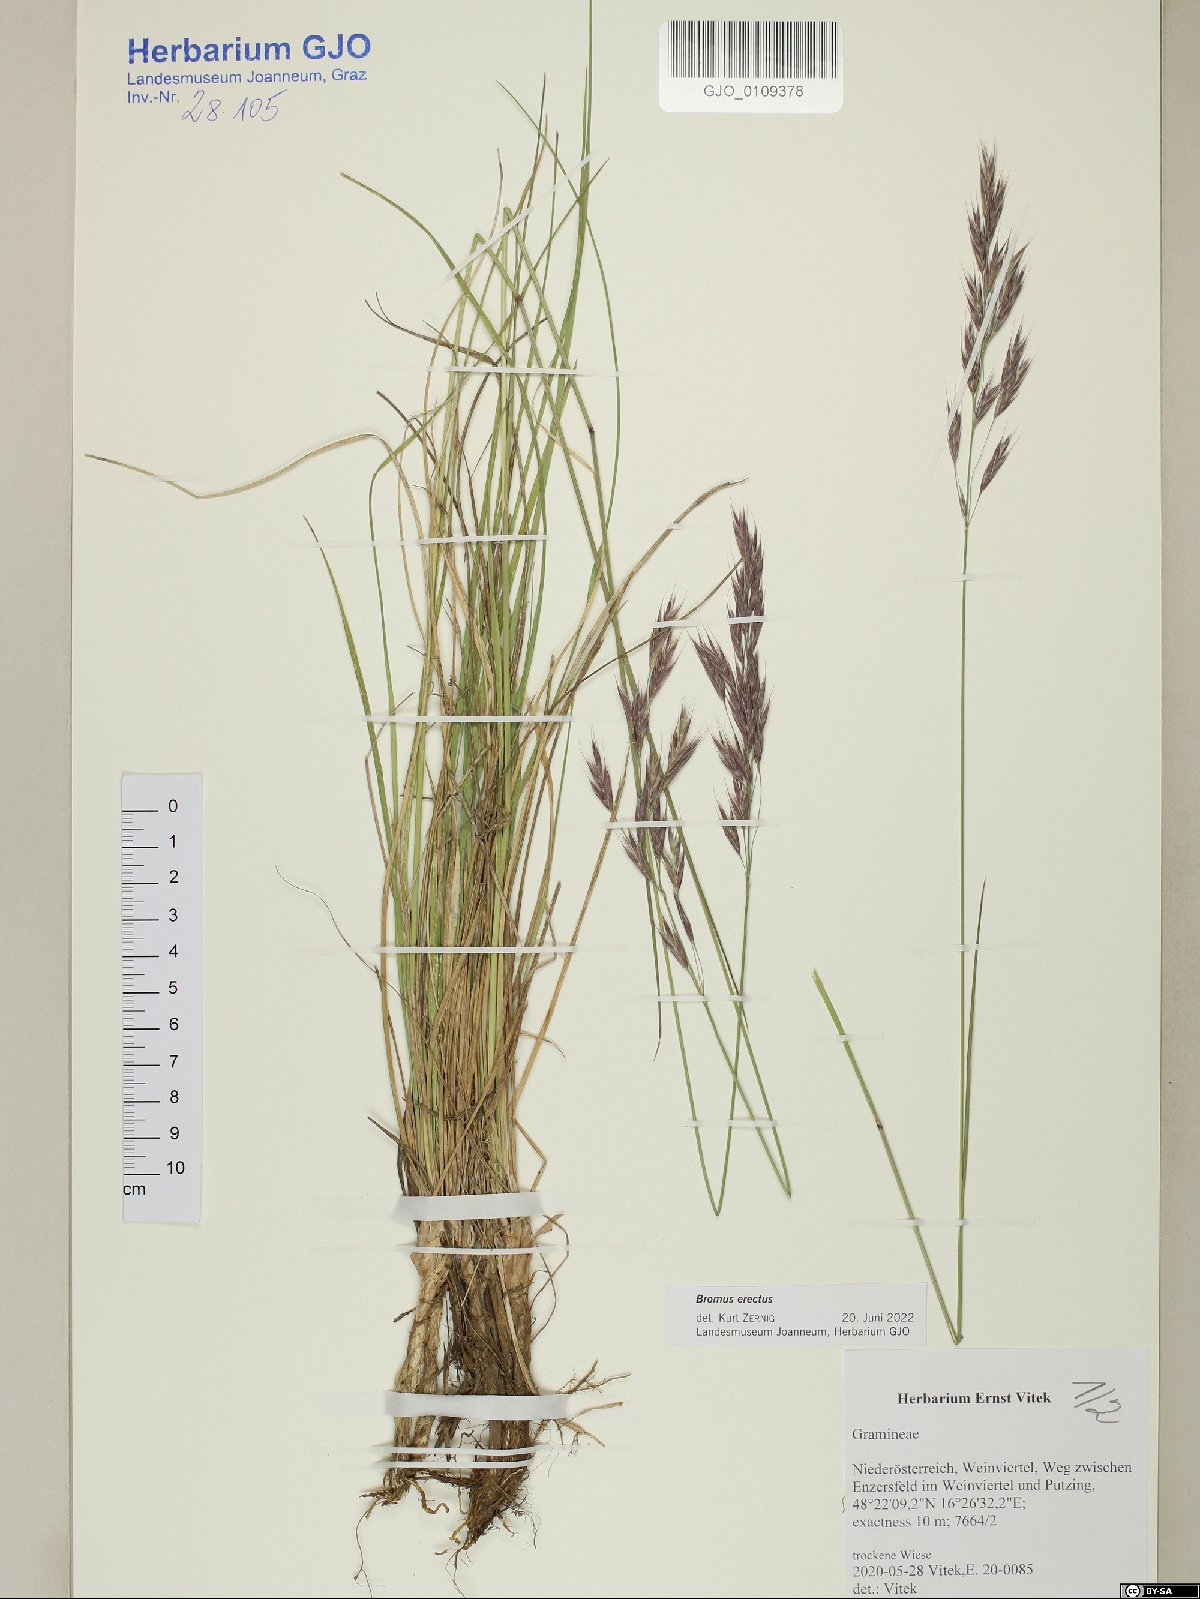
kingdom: Plantae
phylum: Tracheophyta
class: Liliopsida
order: Poales
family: Poaceae
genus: Bromus
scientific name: Bromus erectus
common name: Erect brome
